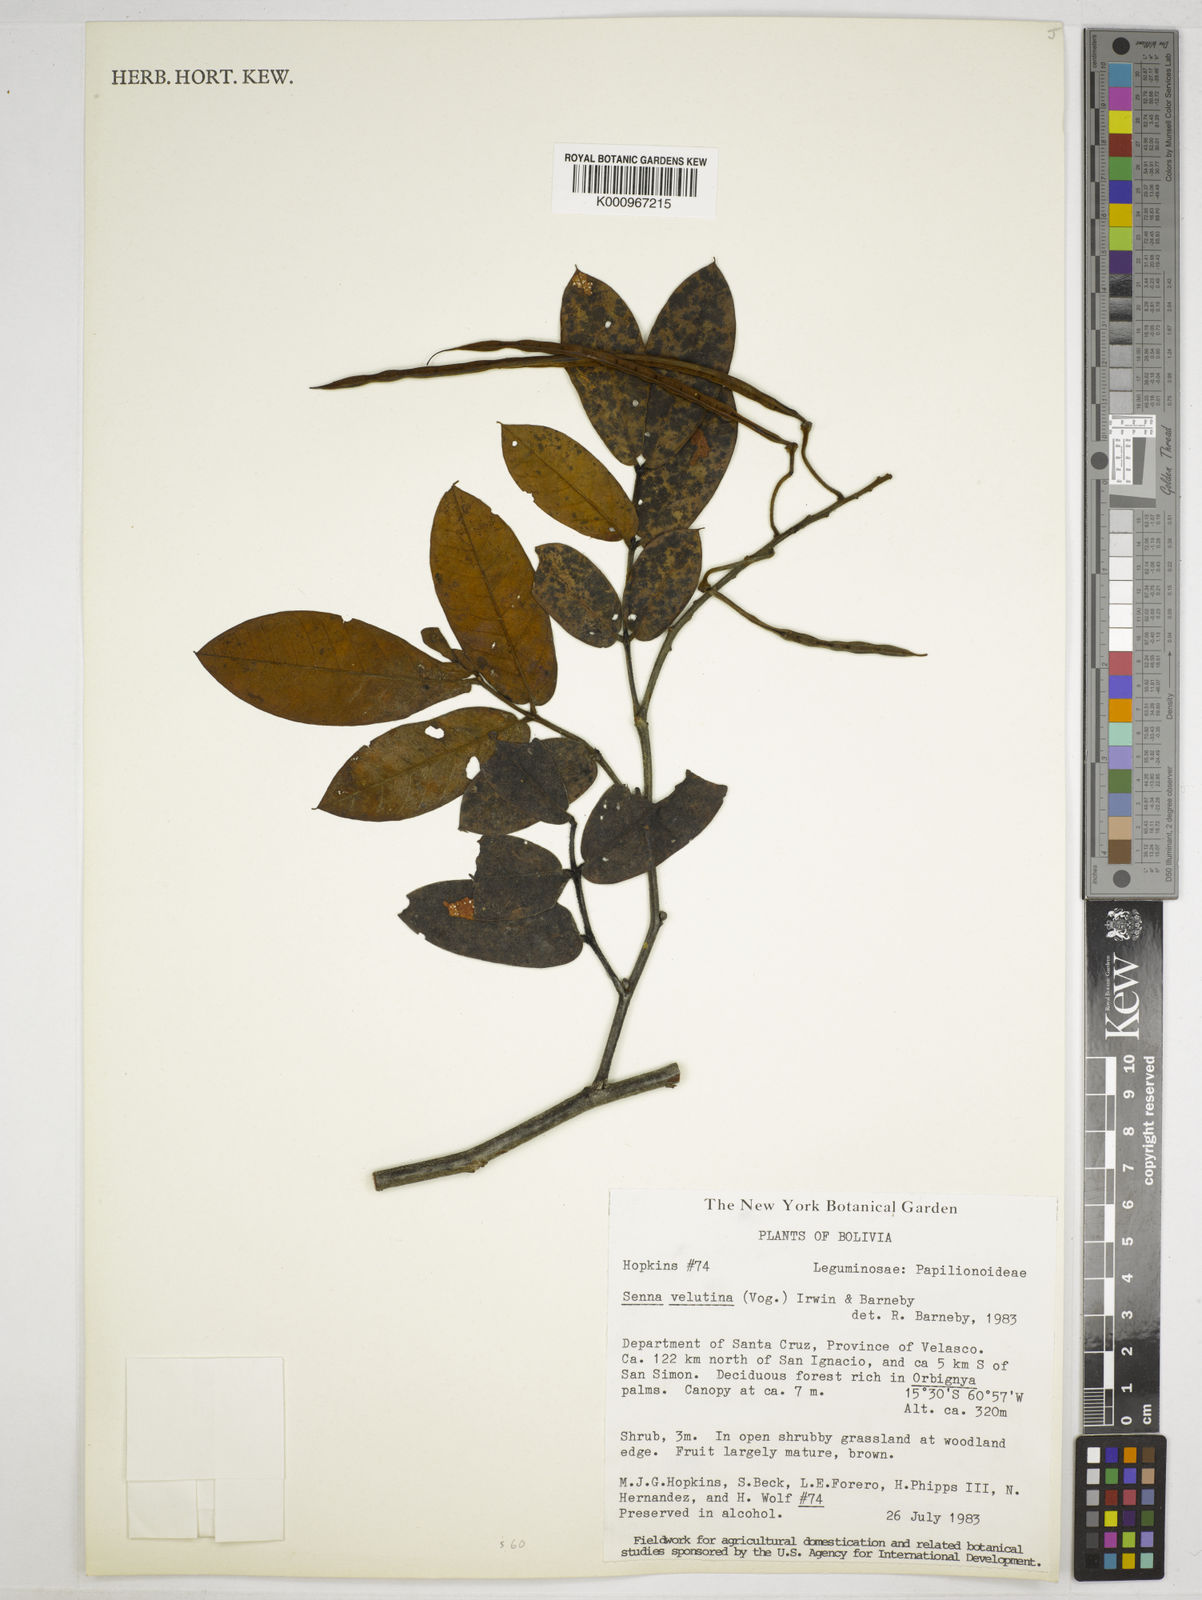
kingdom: Plantae
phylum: Tracheophyta
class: Magnoliopsida
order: Fabales
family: Fabaceae
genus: Senna
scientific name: Senna velutina
